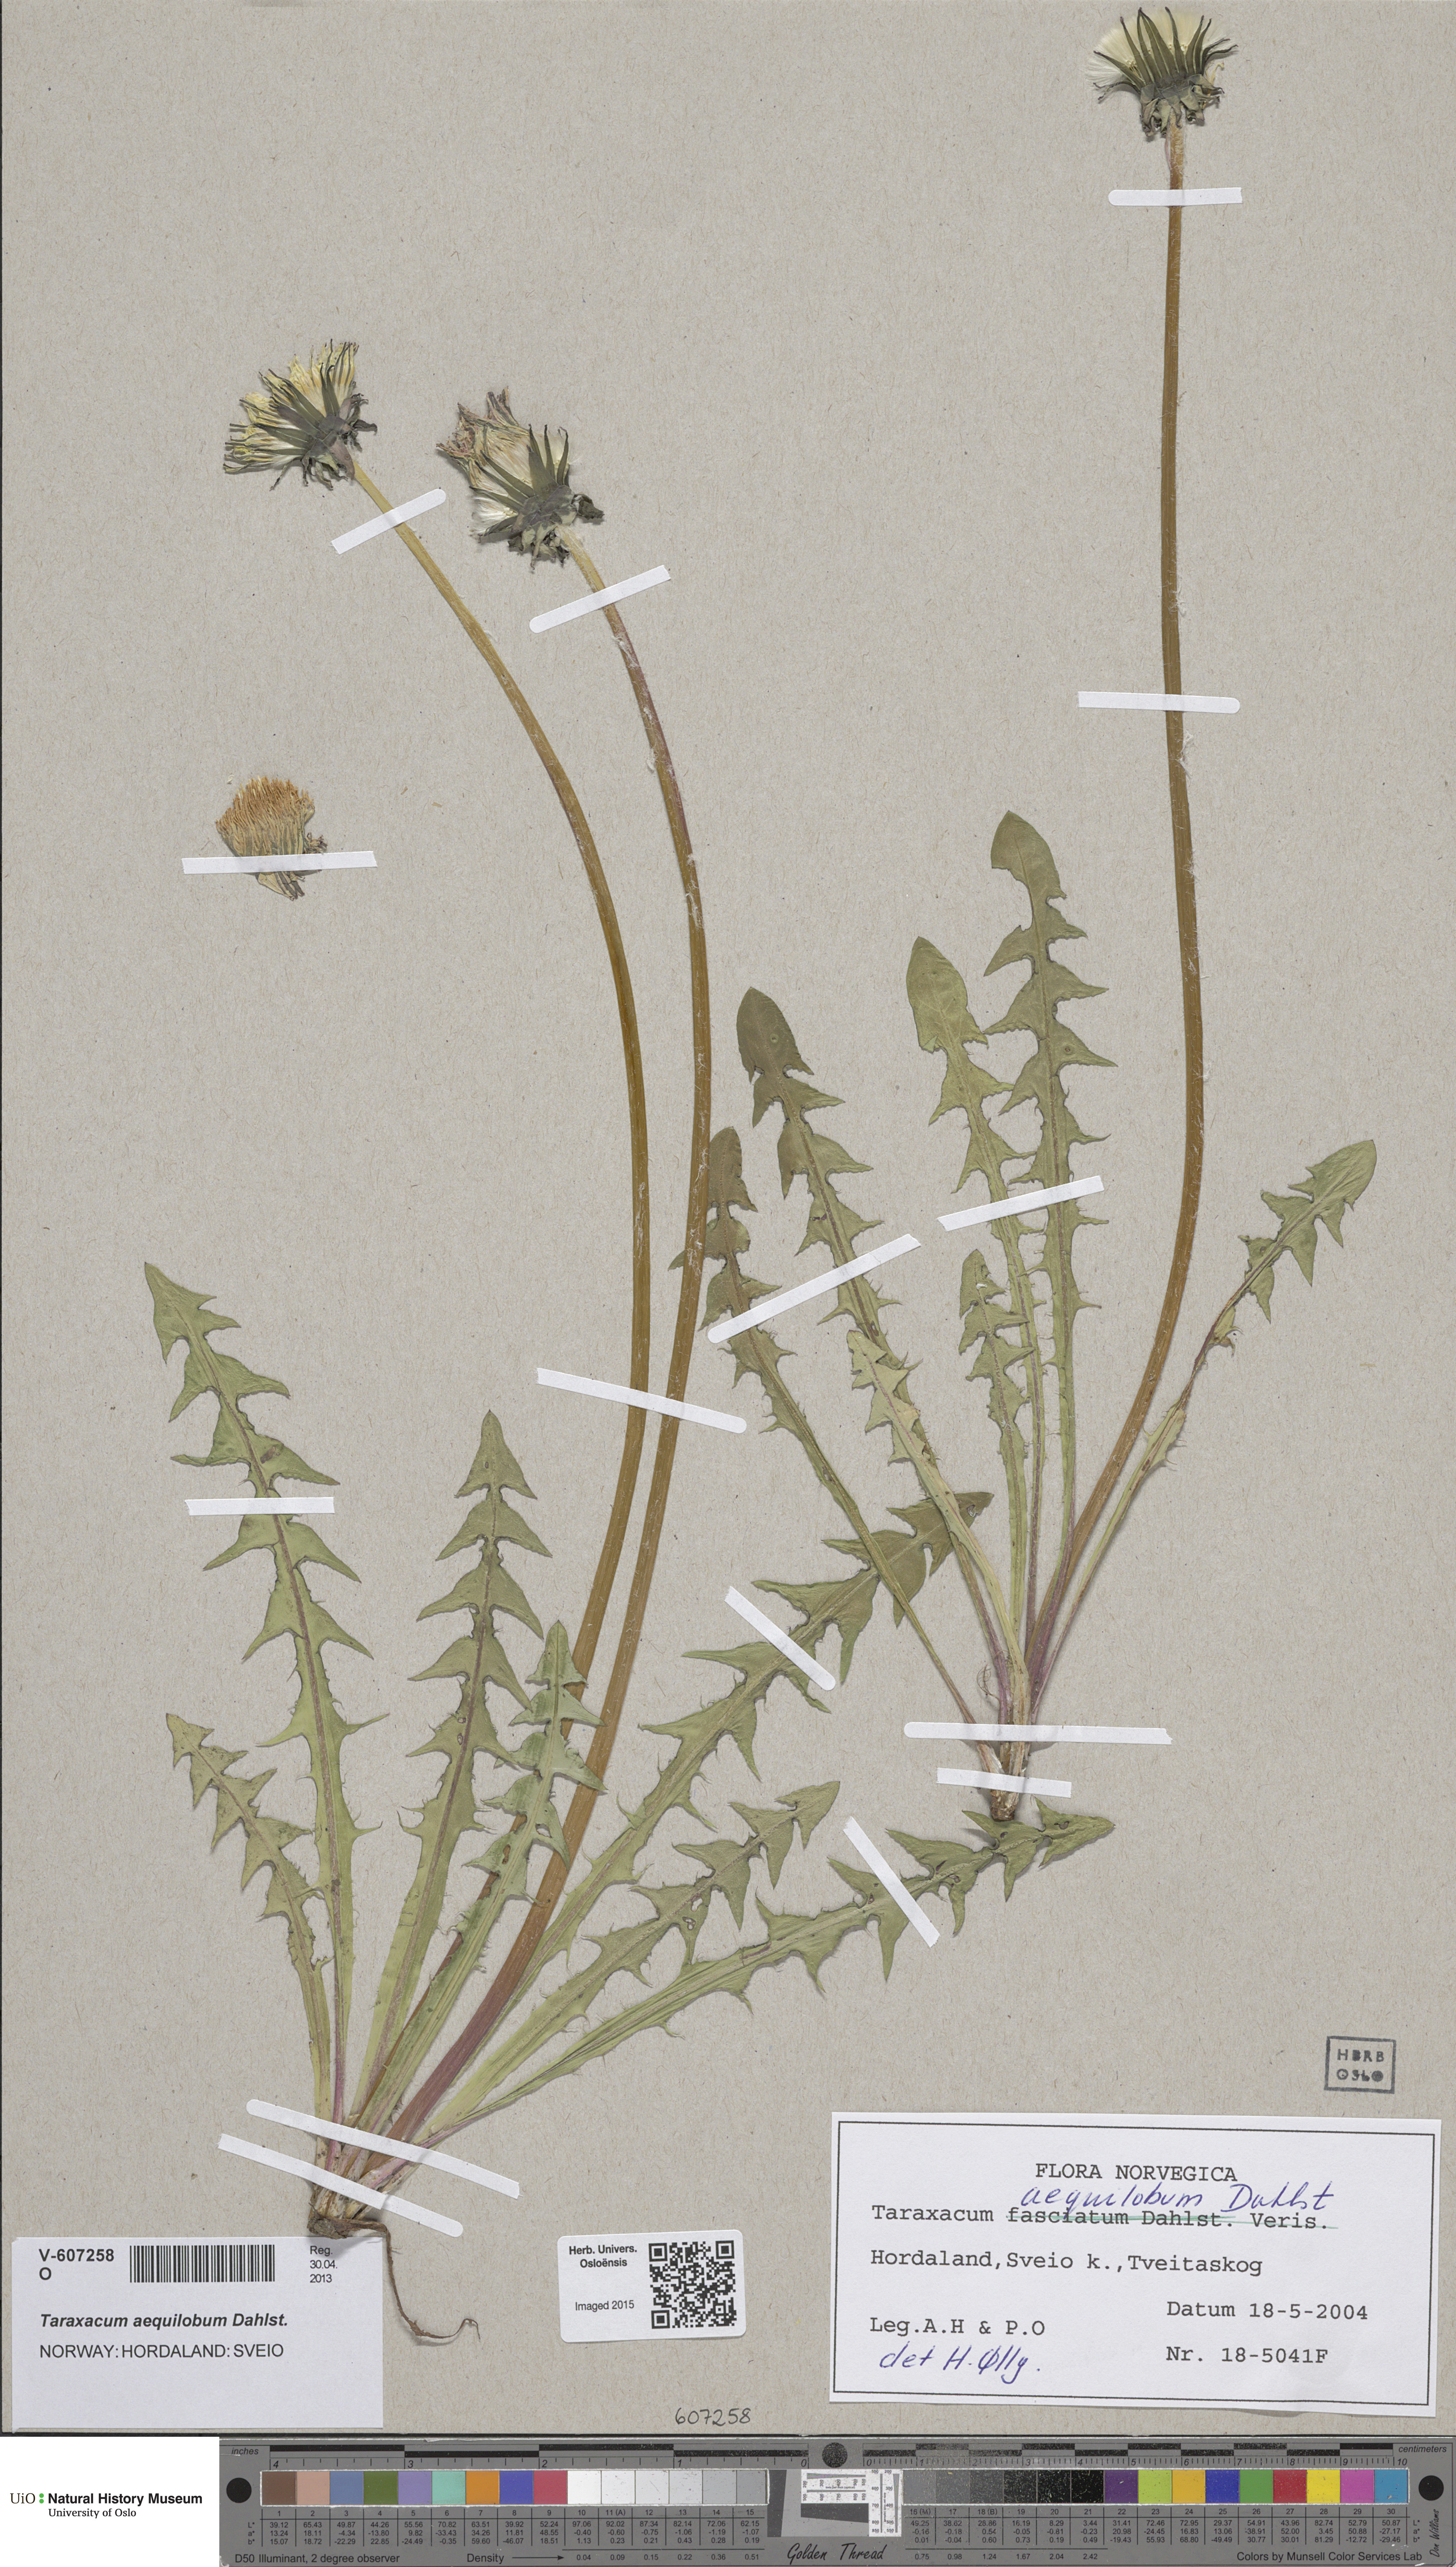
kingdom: Plantae
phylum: Tracheophyta
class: Magnoliopsida
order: Asterales
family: Asteraceae
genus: Taraxacum
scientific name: Taraxacum aequilobum
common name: Twisted-bracted dandelion
